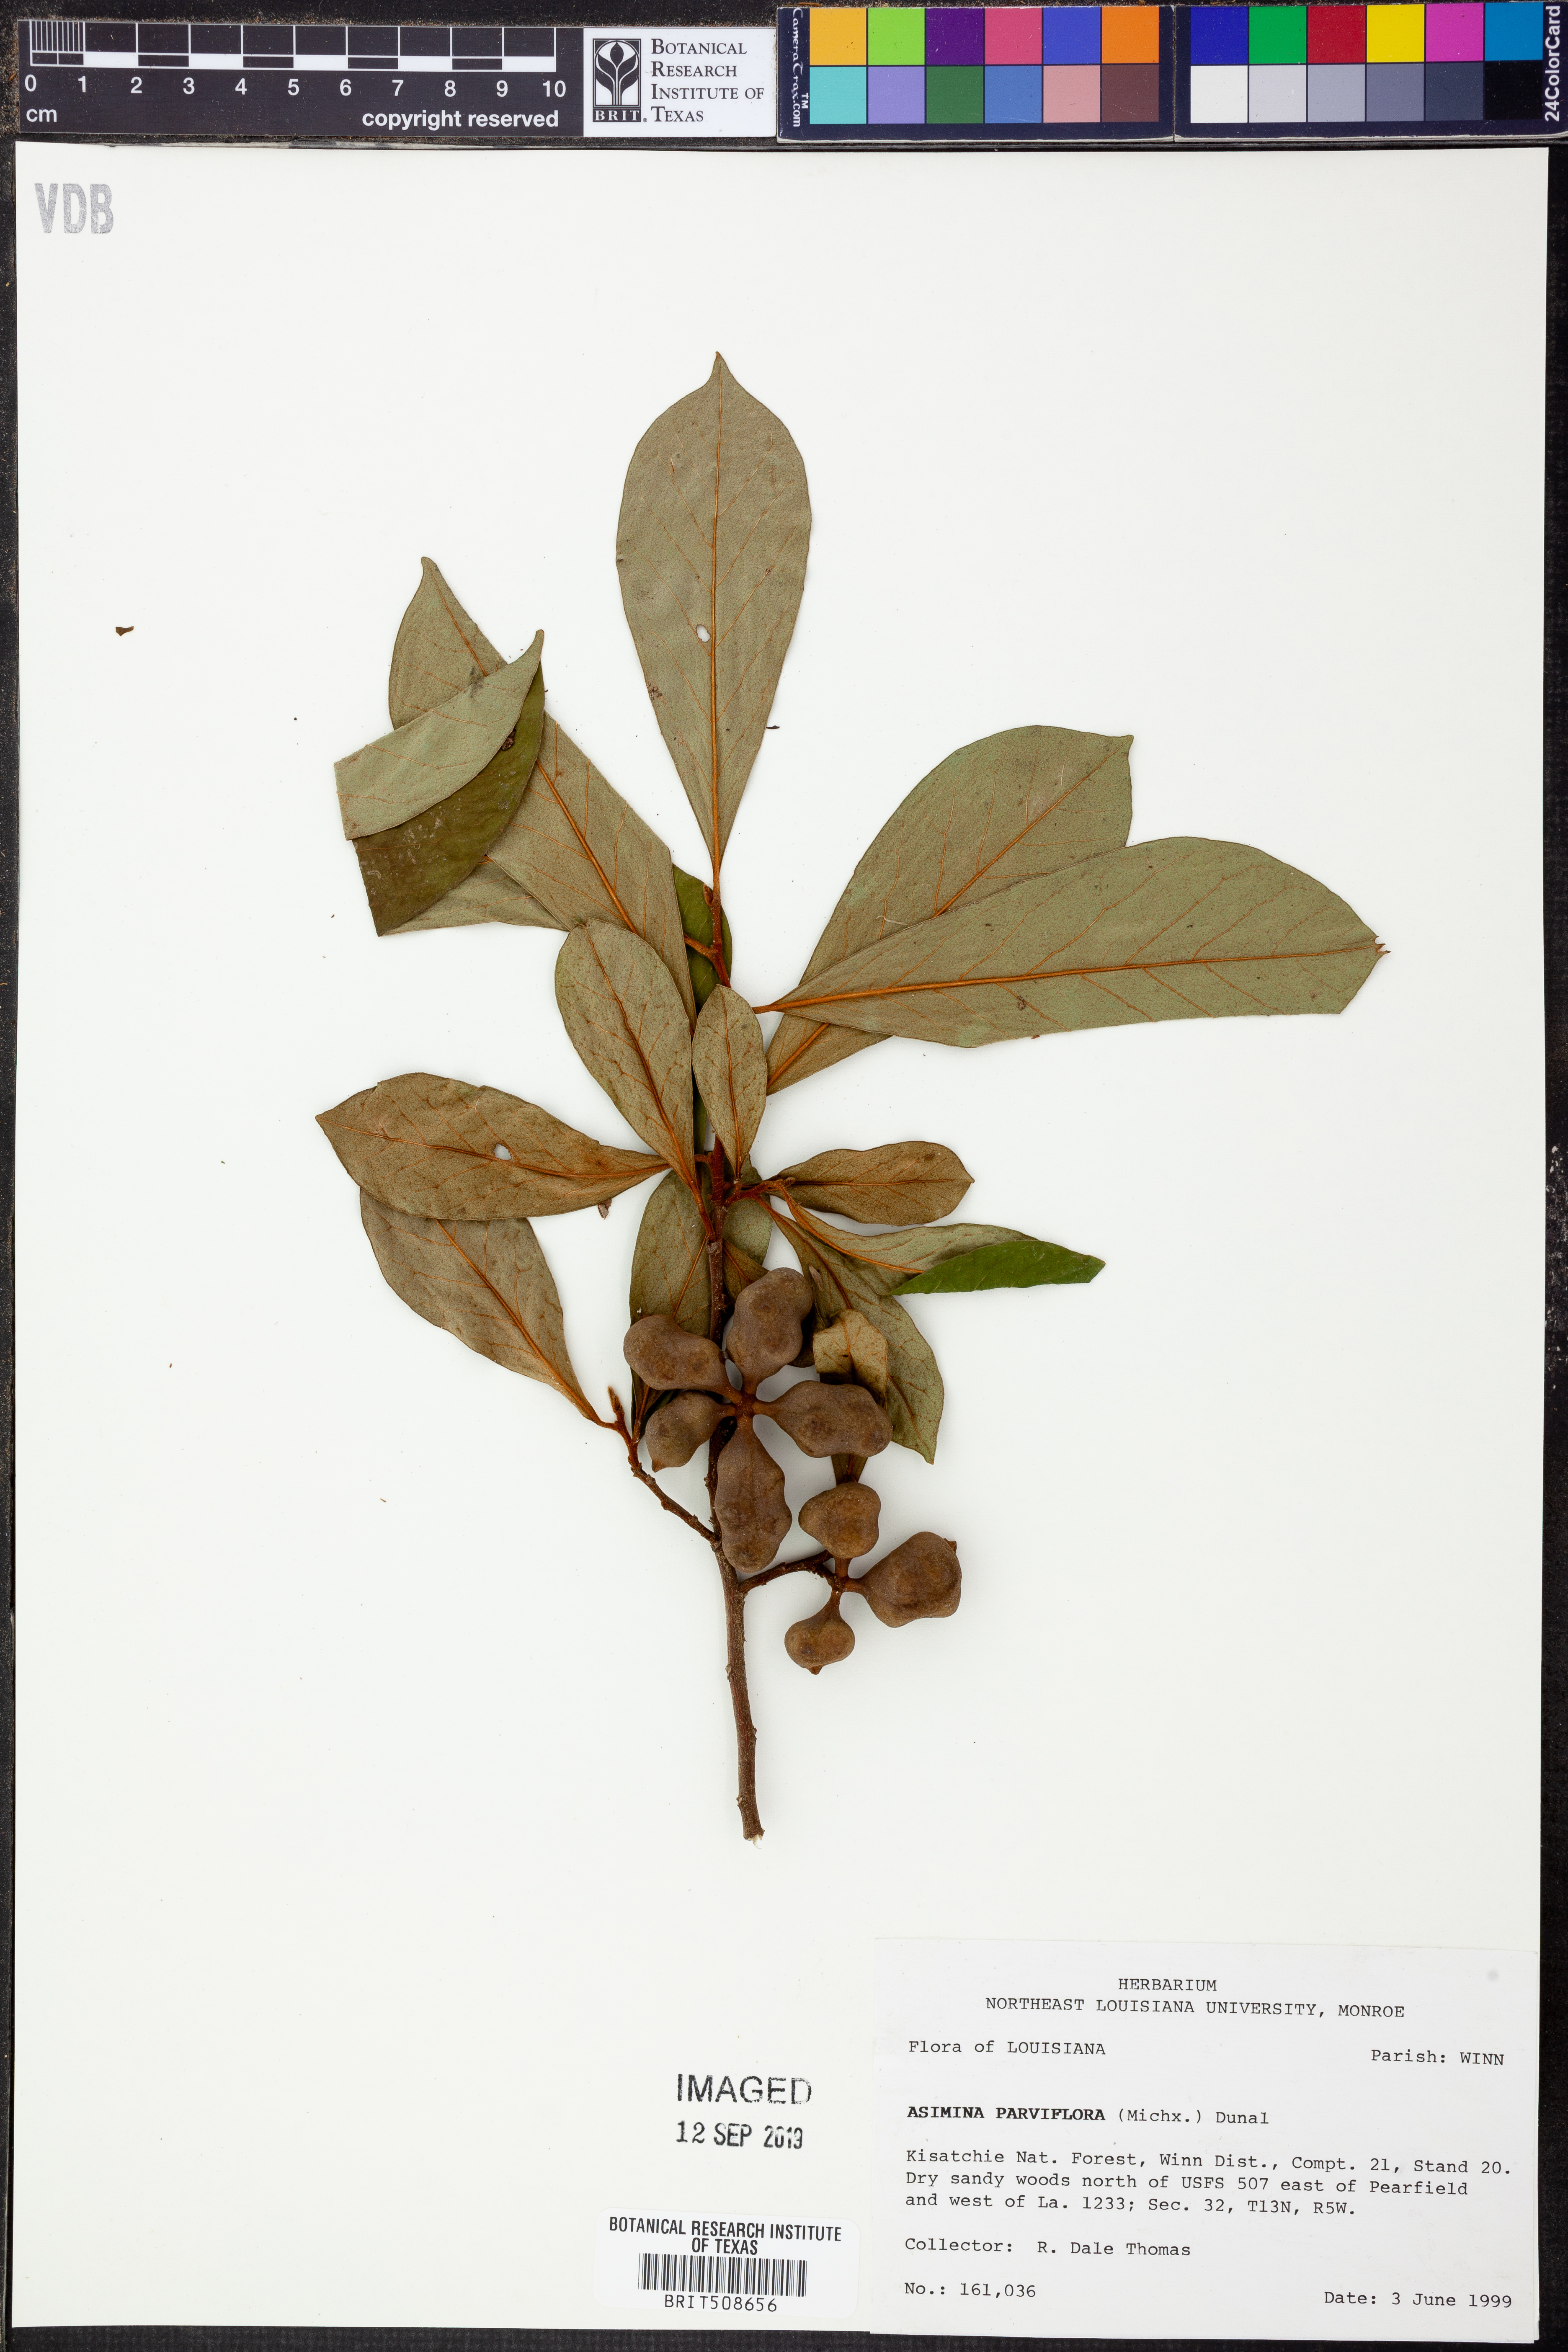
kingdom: Plantae
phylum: Tracheophyta
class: Magnoliopsida
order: Magnoliales
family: Annonaceae
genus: Asimina
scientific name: Asimina parviflora
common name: Dwarf pawpaw
